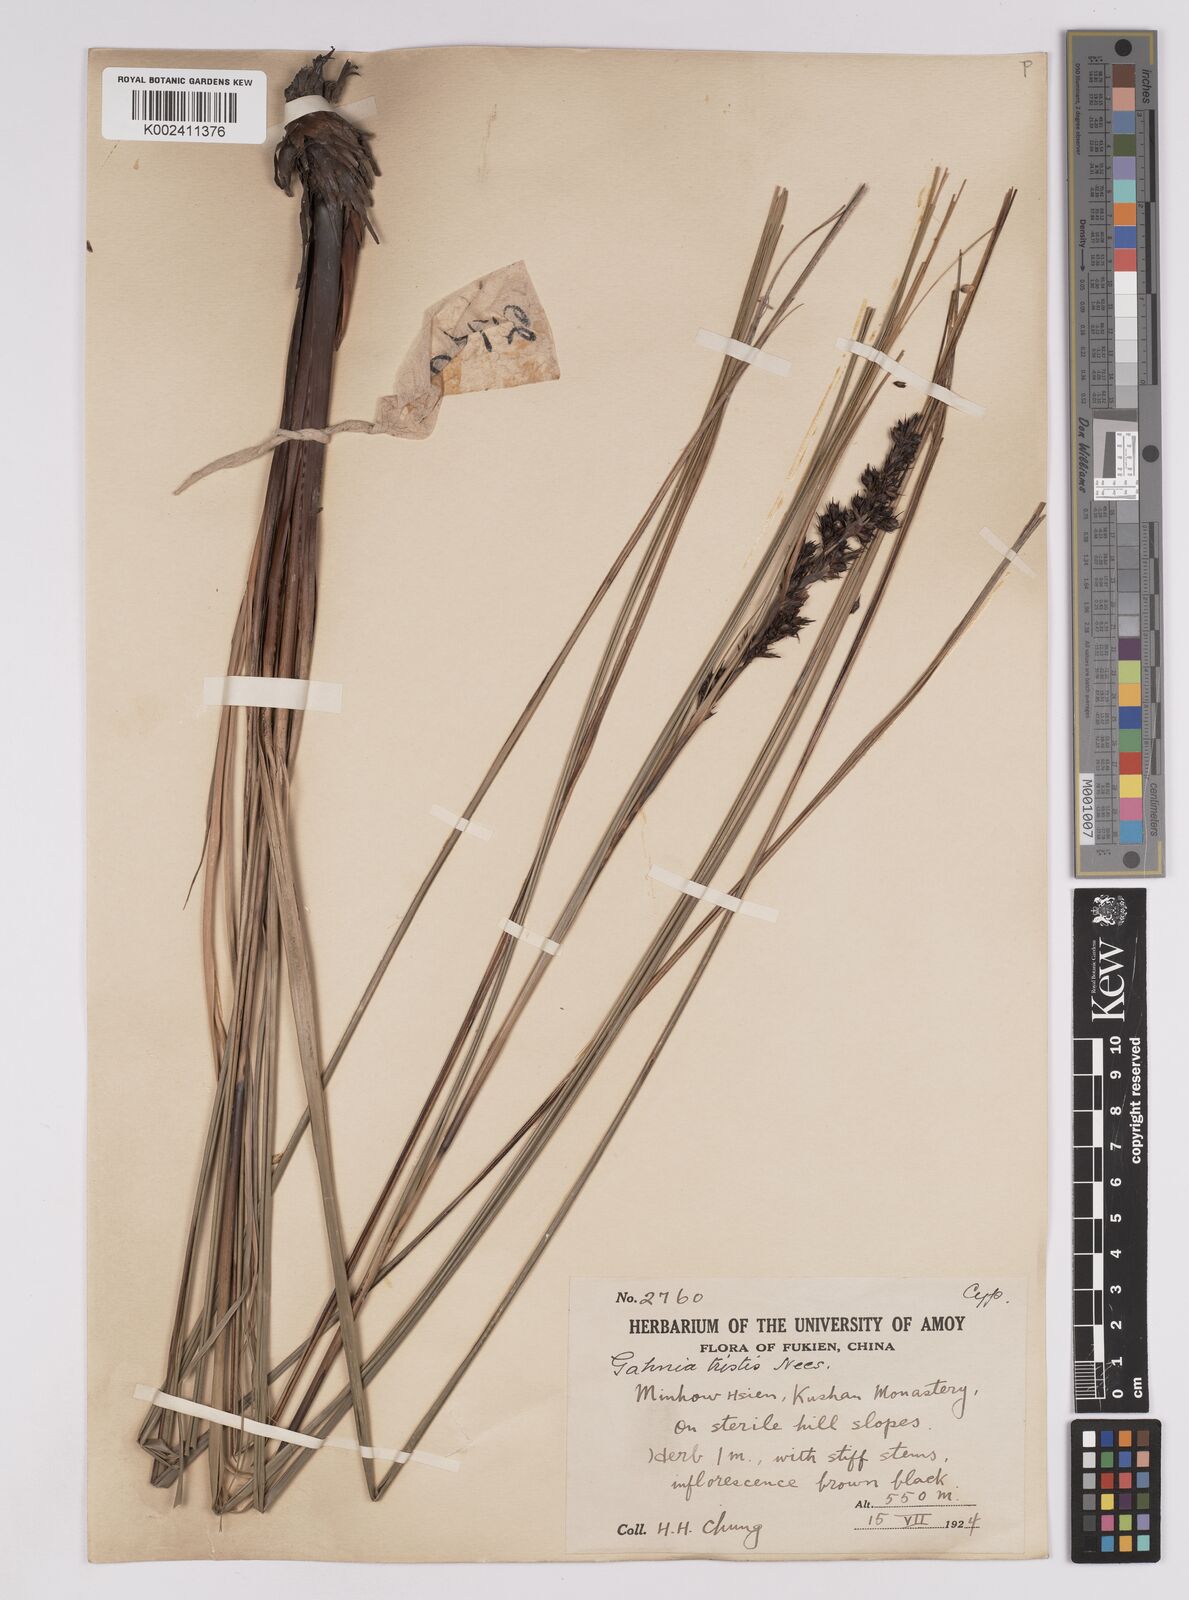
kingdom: Plantae
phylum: Tracheophyta
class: Liliopsida
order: Poales
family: Cyperaceae
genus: Gahnia
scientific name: Gahnia tristis
